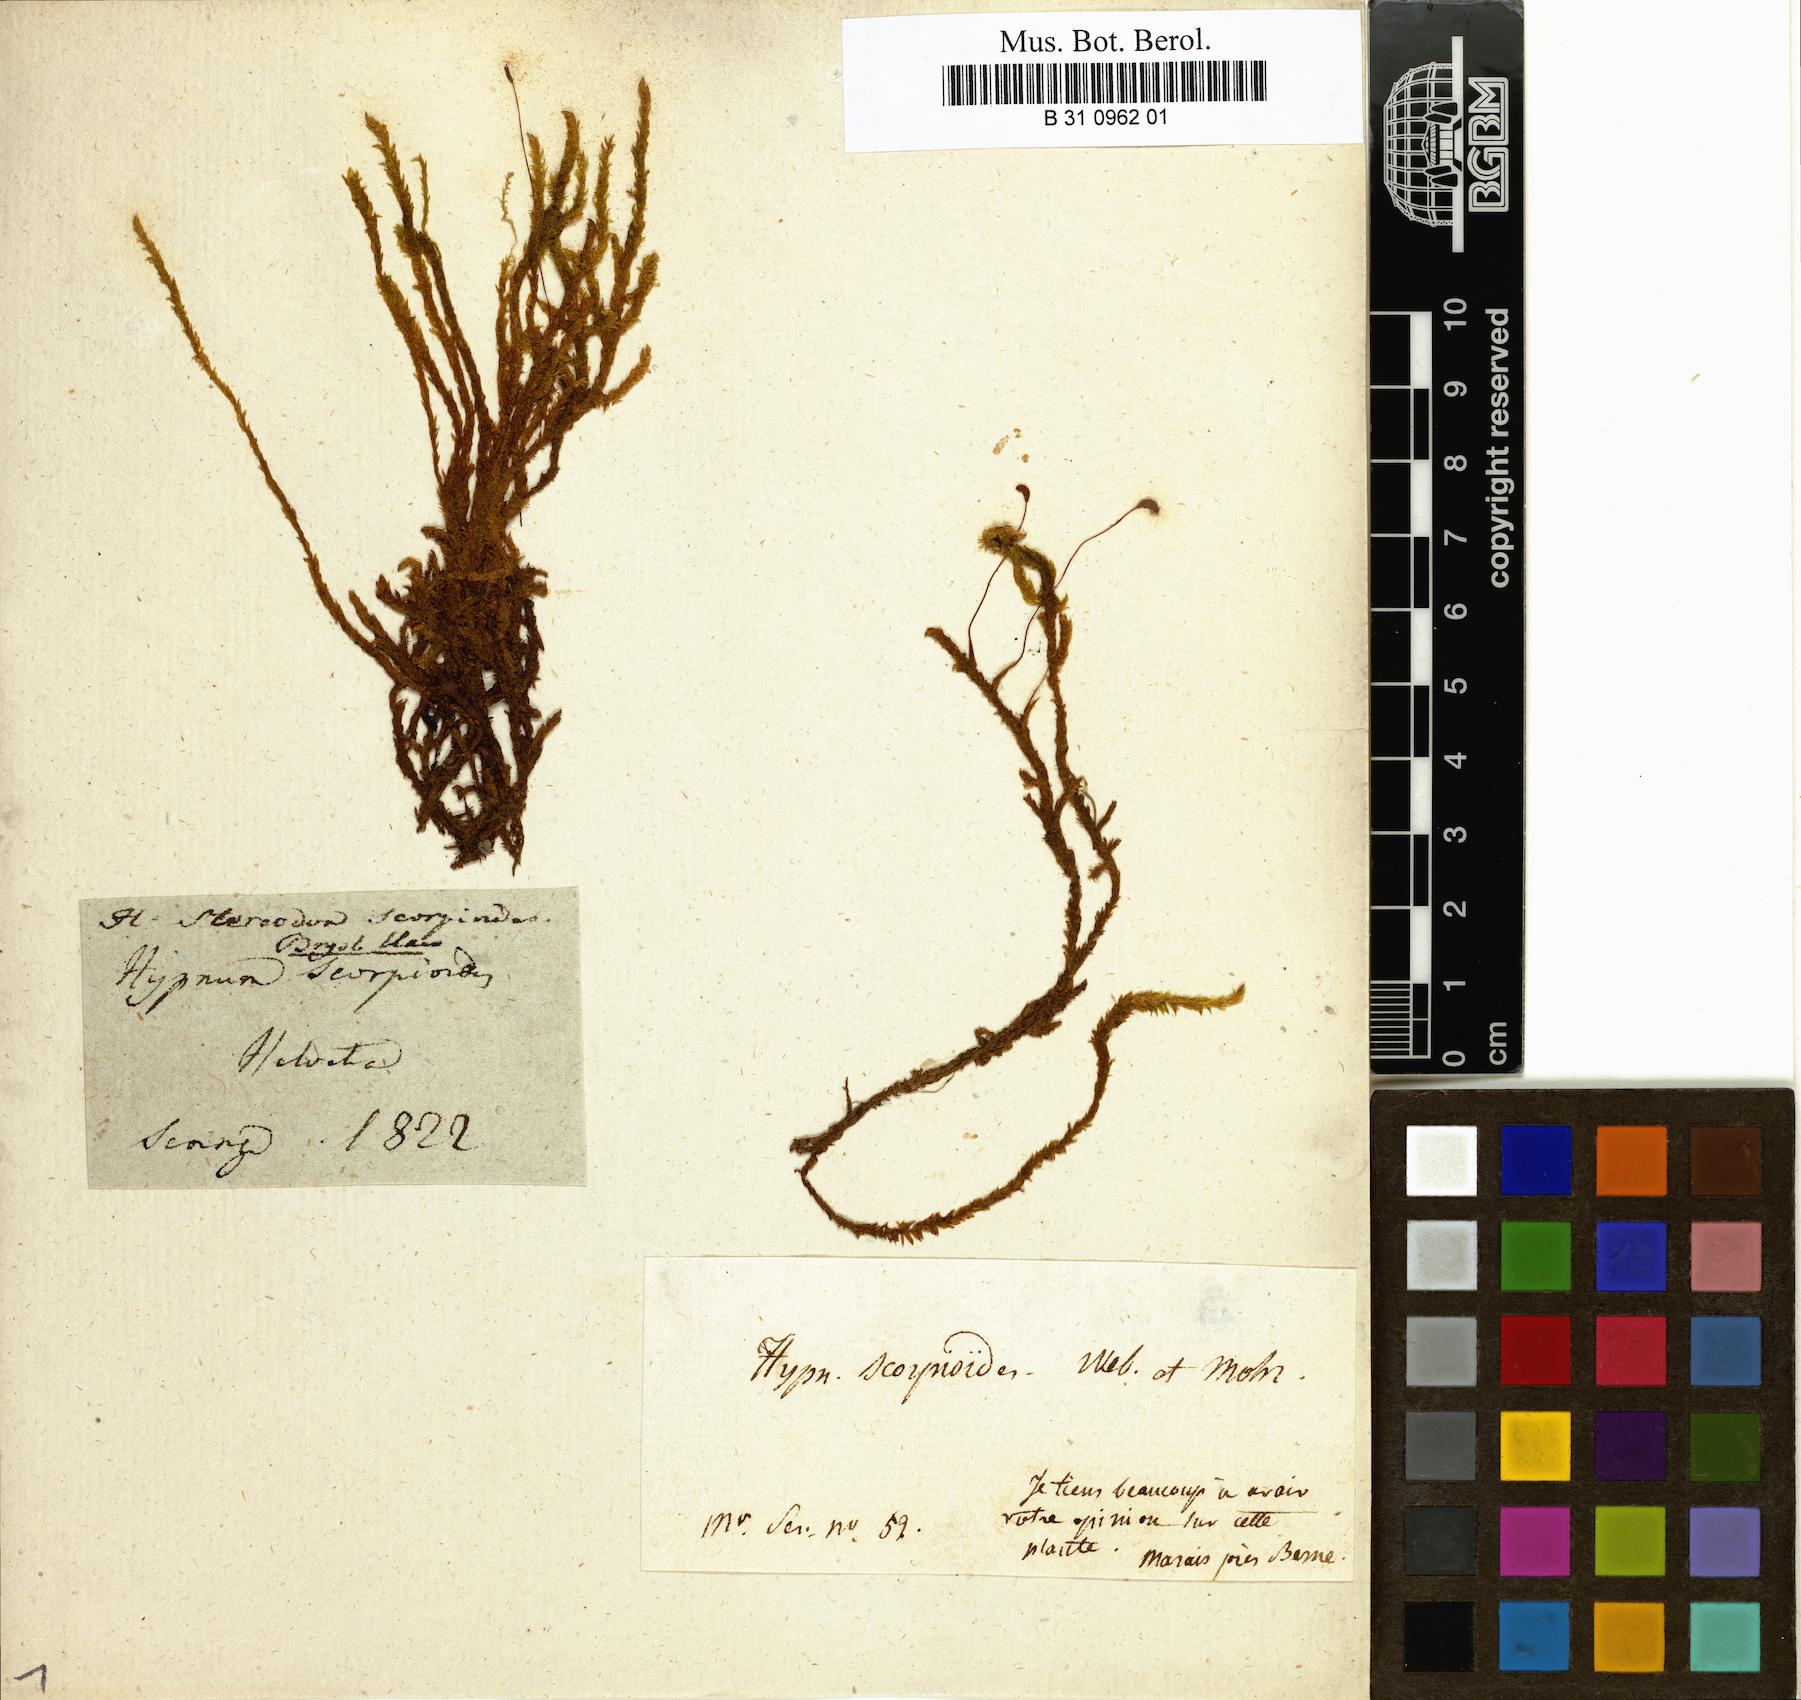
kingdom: Plantae
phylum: Bryophyta
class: Bryopsida
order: Hypnales
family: Scorpidiaceae
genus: Scorpidium
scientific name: Scorpidium scorpioides
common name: Hooked scorpion moss
